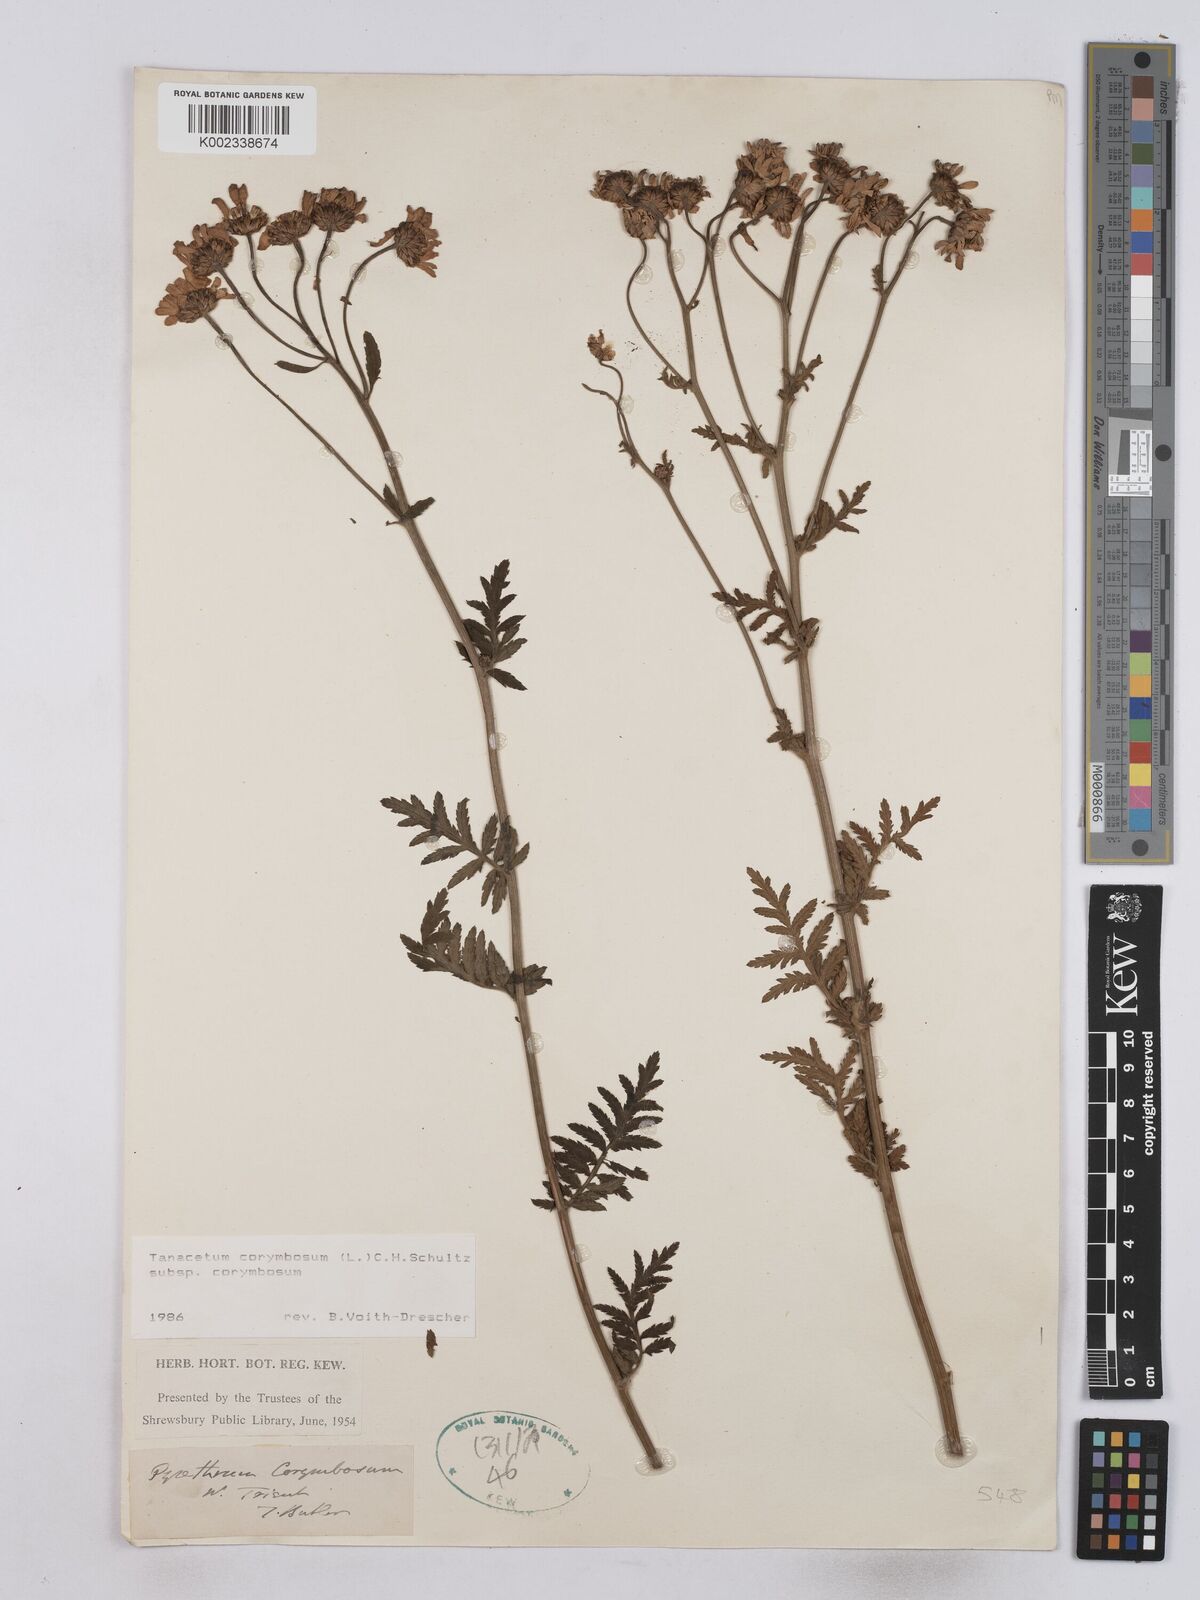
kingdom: Plantae
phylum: Tracheophyta
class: Magnoliopsida
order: Asterales
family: Asteraceae
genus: Tanacetum
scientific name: Tanacetum corymbosum
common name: Scentless feverfew
